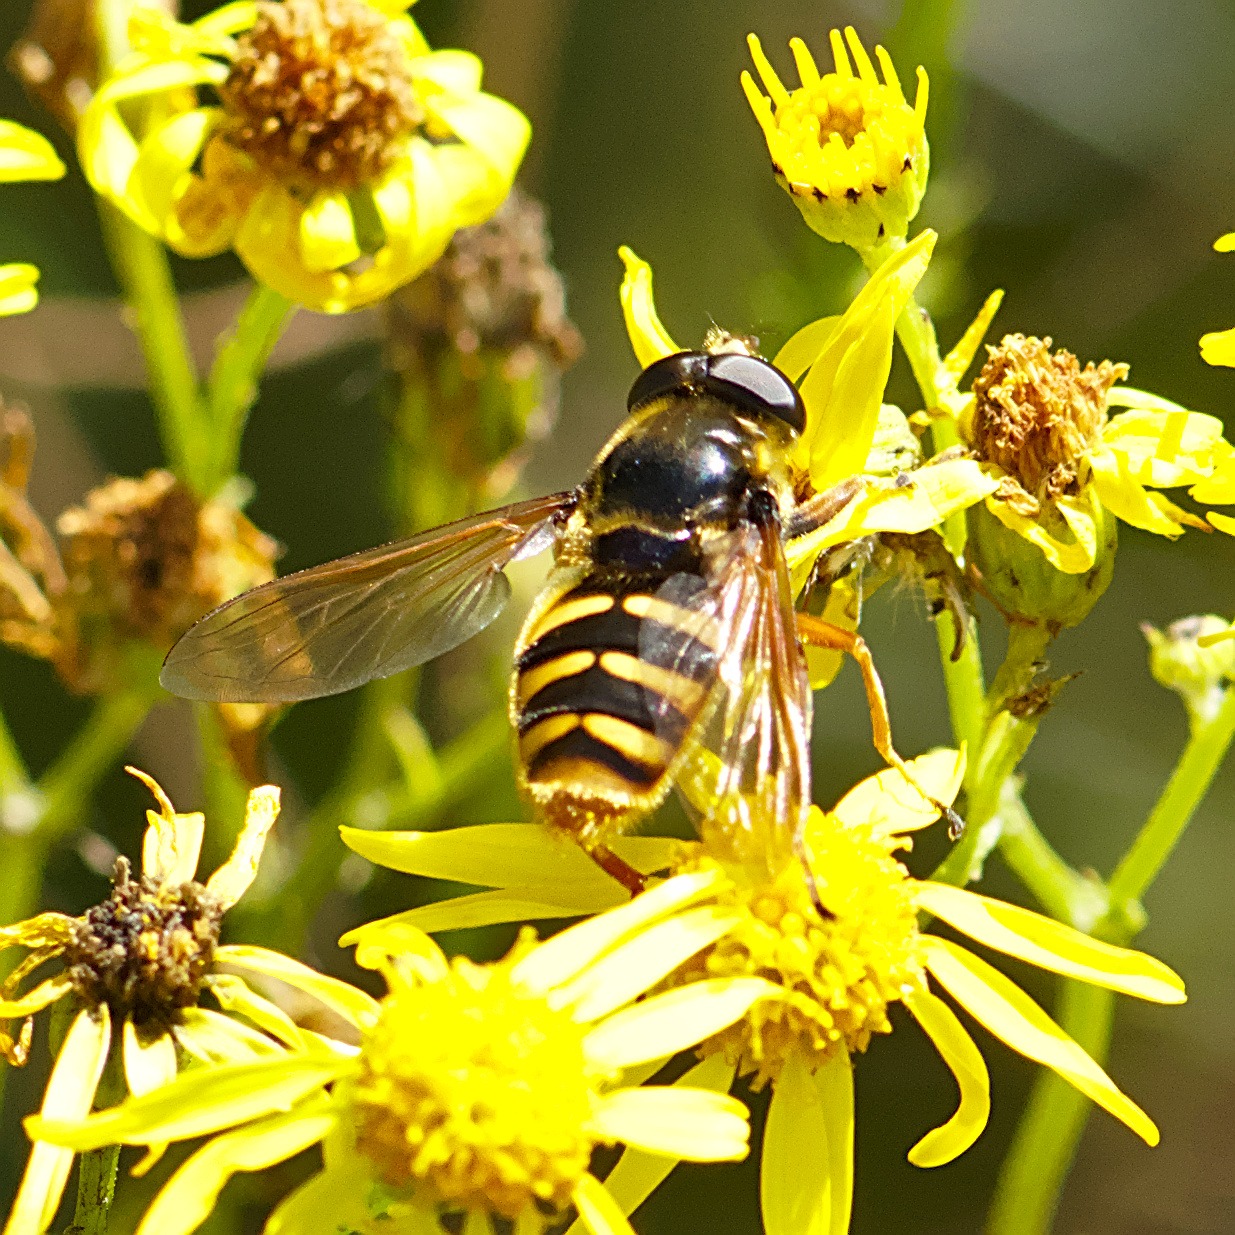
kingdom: Animalia
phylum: Arthropoda
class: Insecta
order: Diptera
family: Syrphidae
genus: Sericomyia
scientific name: Sericomyia silentis
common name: Tørve-silkesvirreflue
